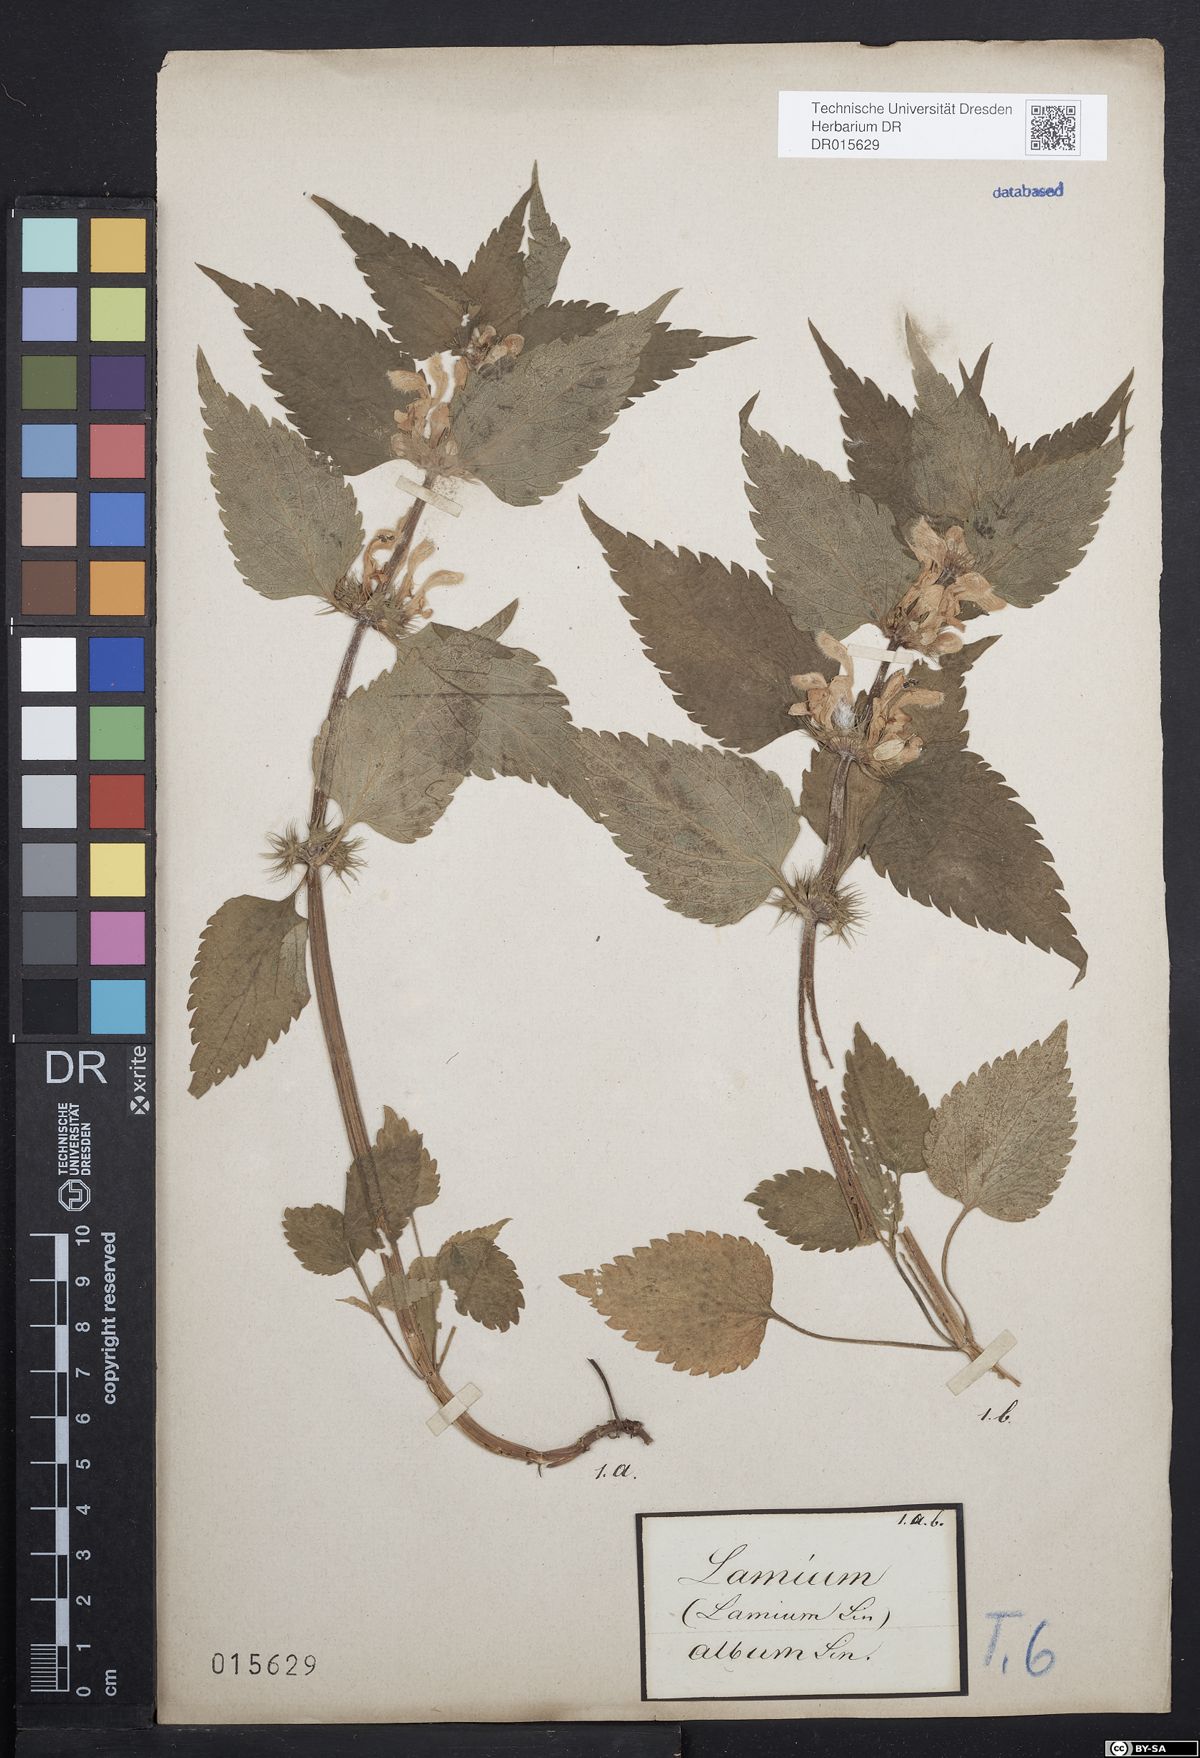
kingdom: Plantae
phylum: Tracheophyta
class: Magnoliopsida
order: Lamiales
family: Lamiaceae
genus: Lamium
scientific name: Lamium album
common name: White dead-nettle
